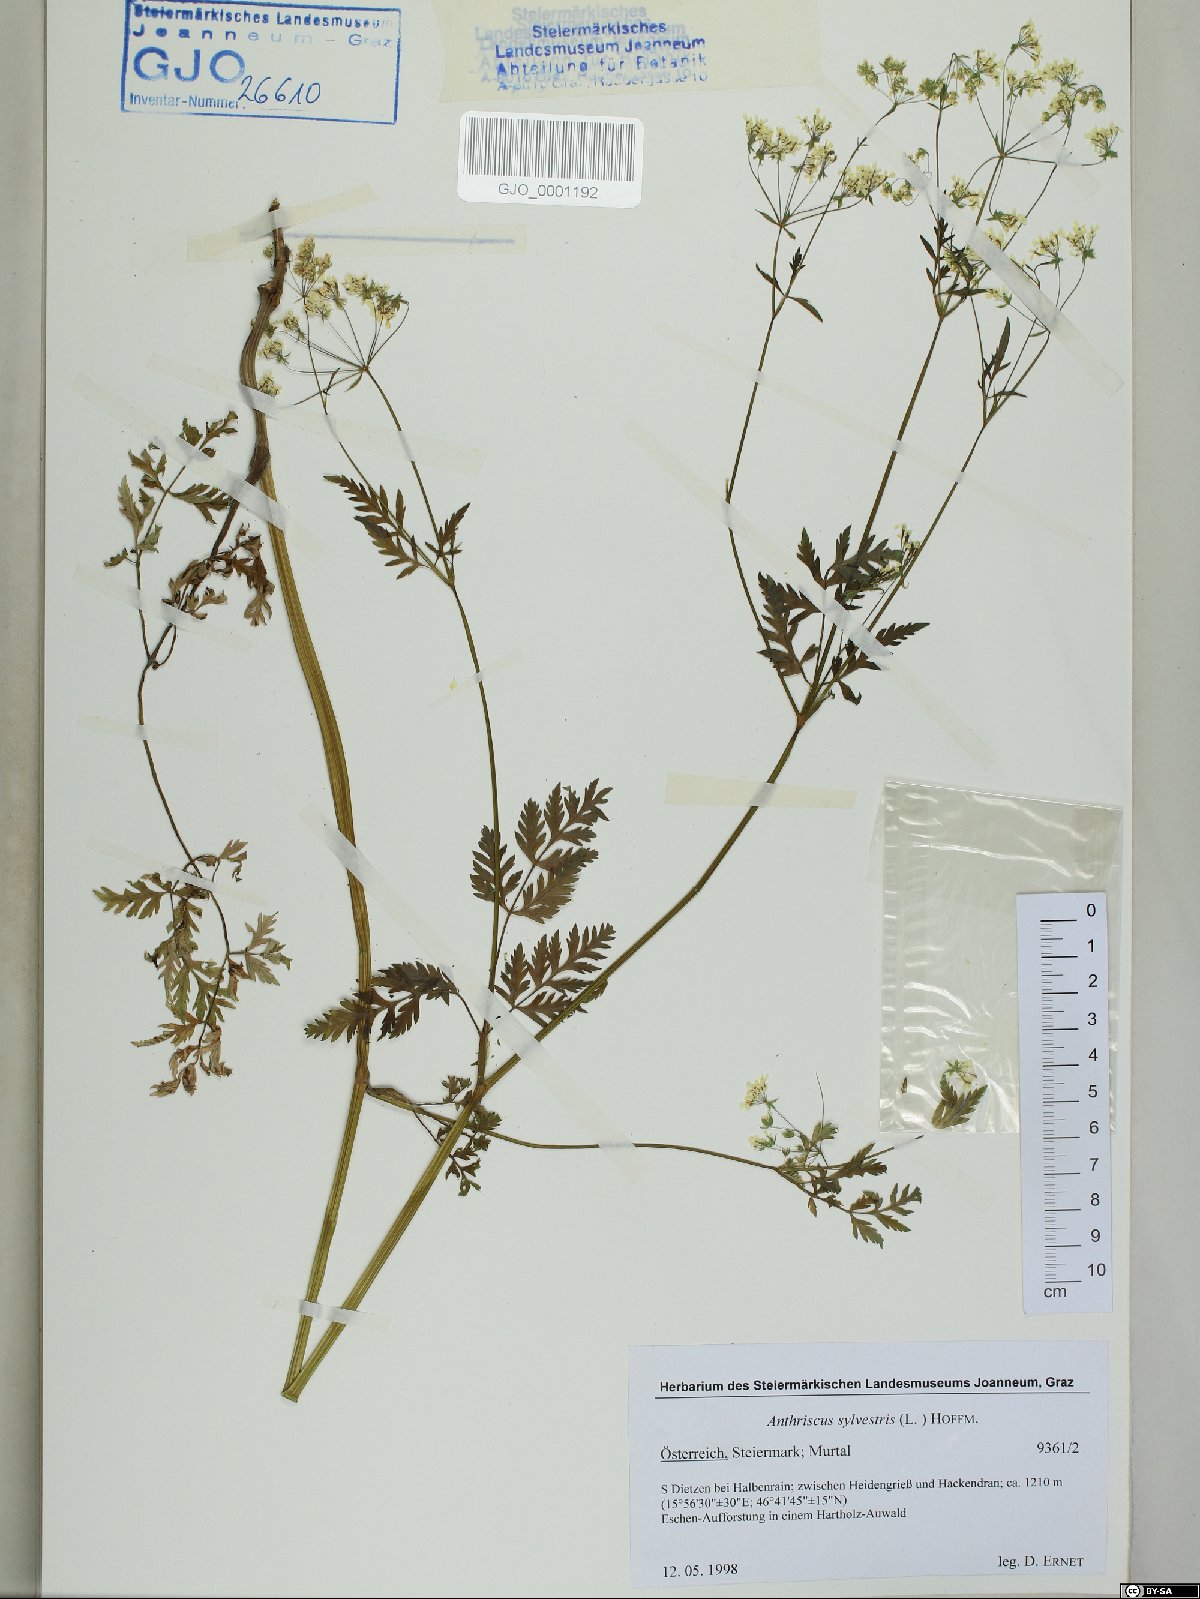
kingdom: Plantae
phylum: Tracheophyta
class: Magnoliopsida
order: Apiales
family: Apiaceae
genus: Anthriscus
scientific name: Anthriscus sylvestris
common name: Cow parsley
